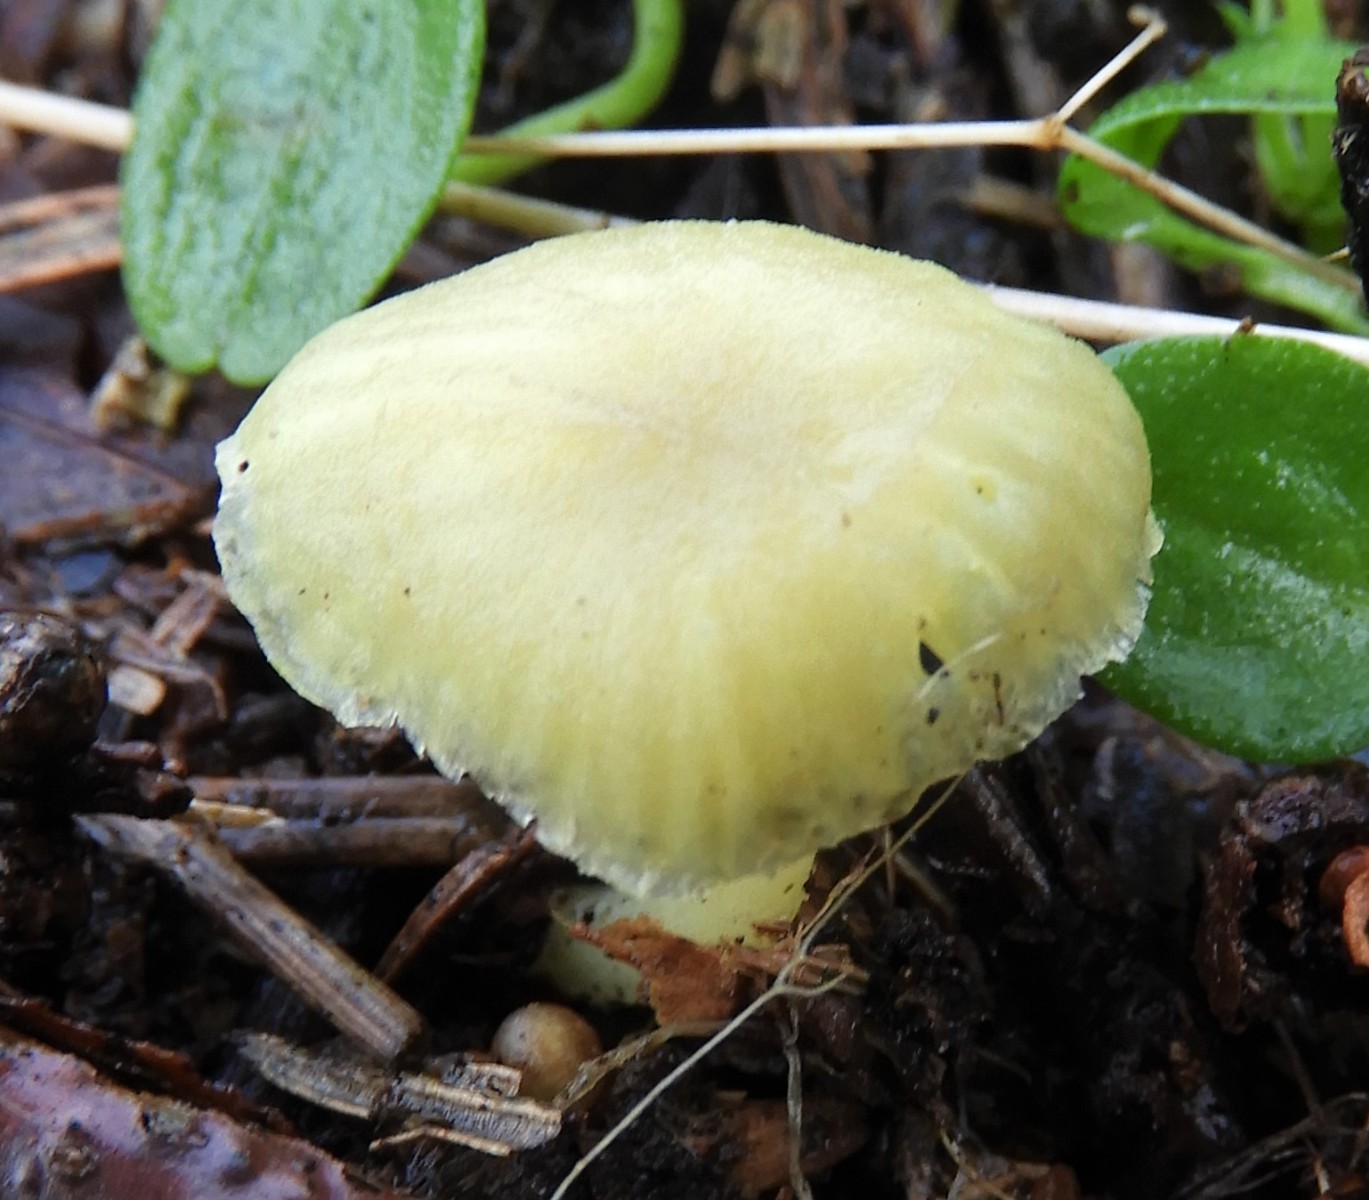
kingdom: Fungi
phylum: Basidiomycota
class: Agaricomycetes
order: Agaricales
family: Hygrophoraceae
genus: Chrysomphalina
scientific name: Chrysomphalina grossula
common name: stød-gyldenblad
